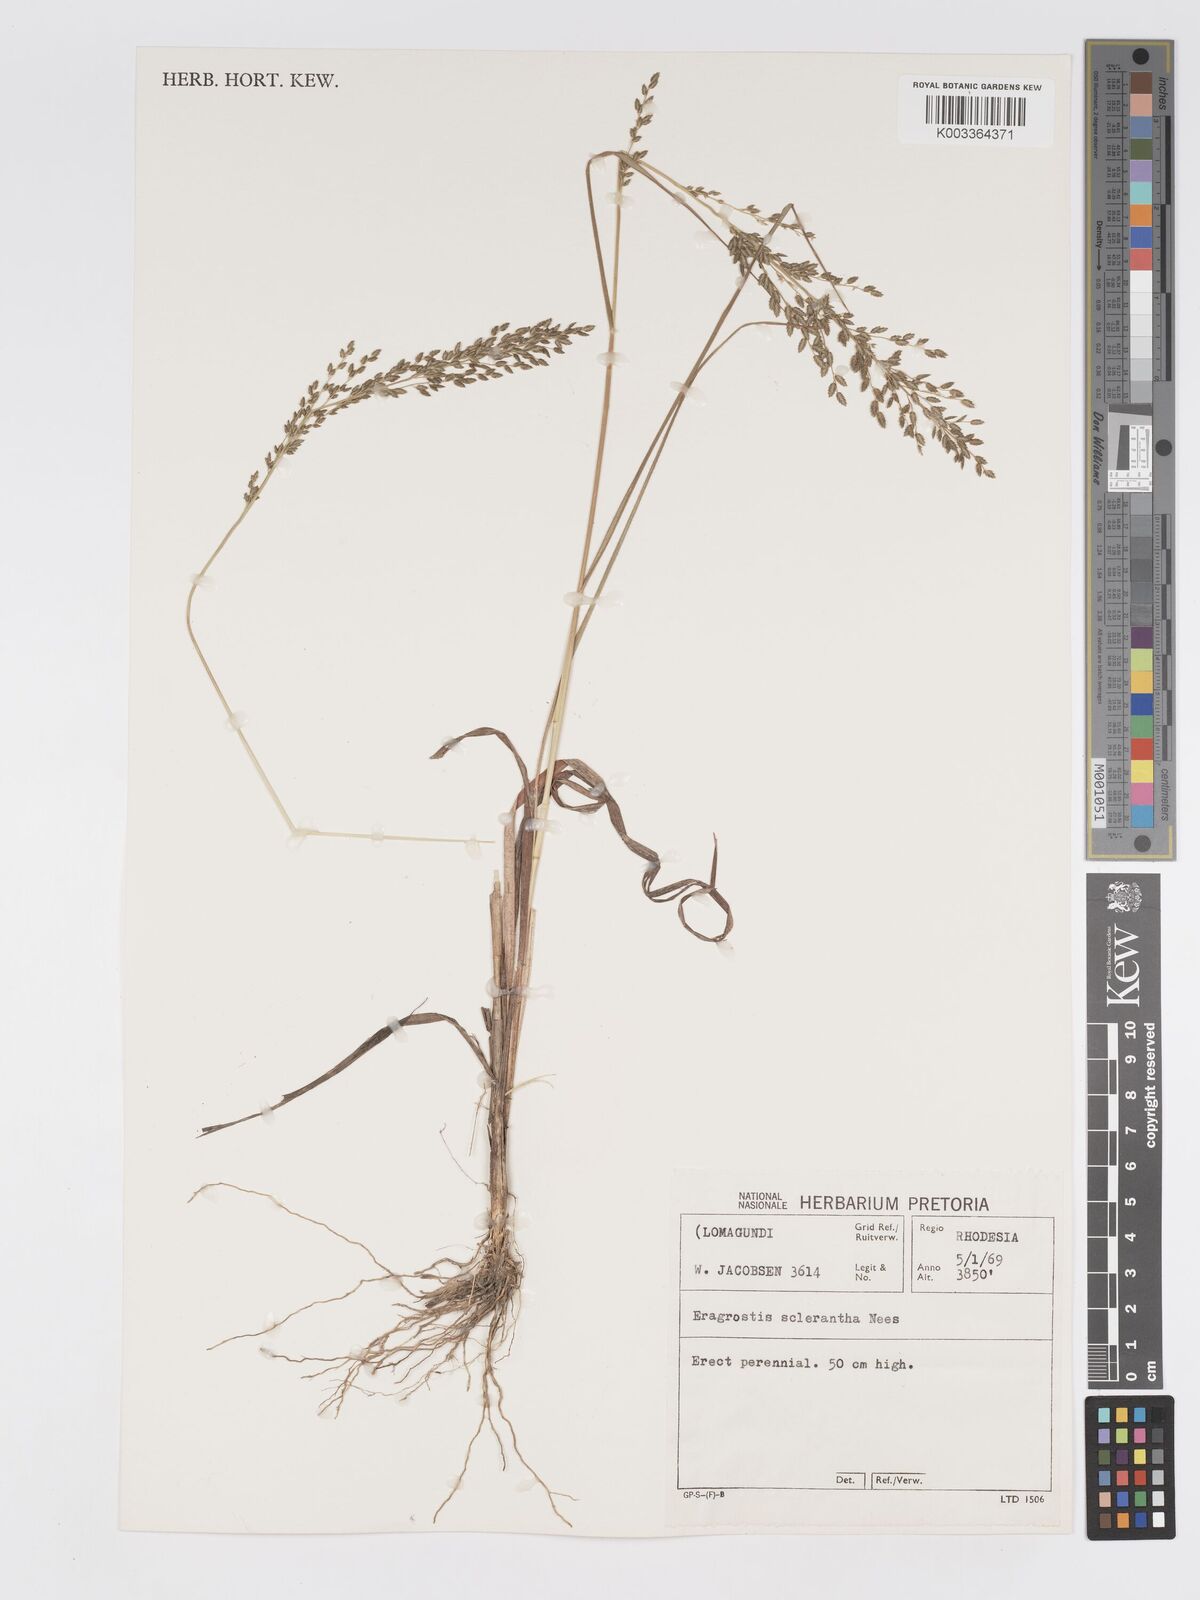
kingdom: Plantae
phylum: Tracheophyta
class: Liliopsida
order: Poales
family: Poaceae
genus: Eragrostis
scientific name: Eragrostis racemosa
